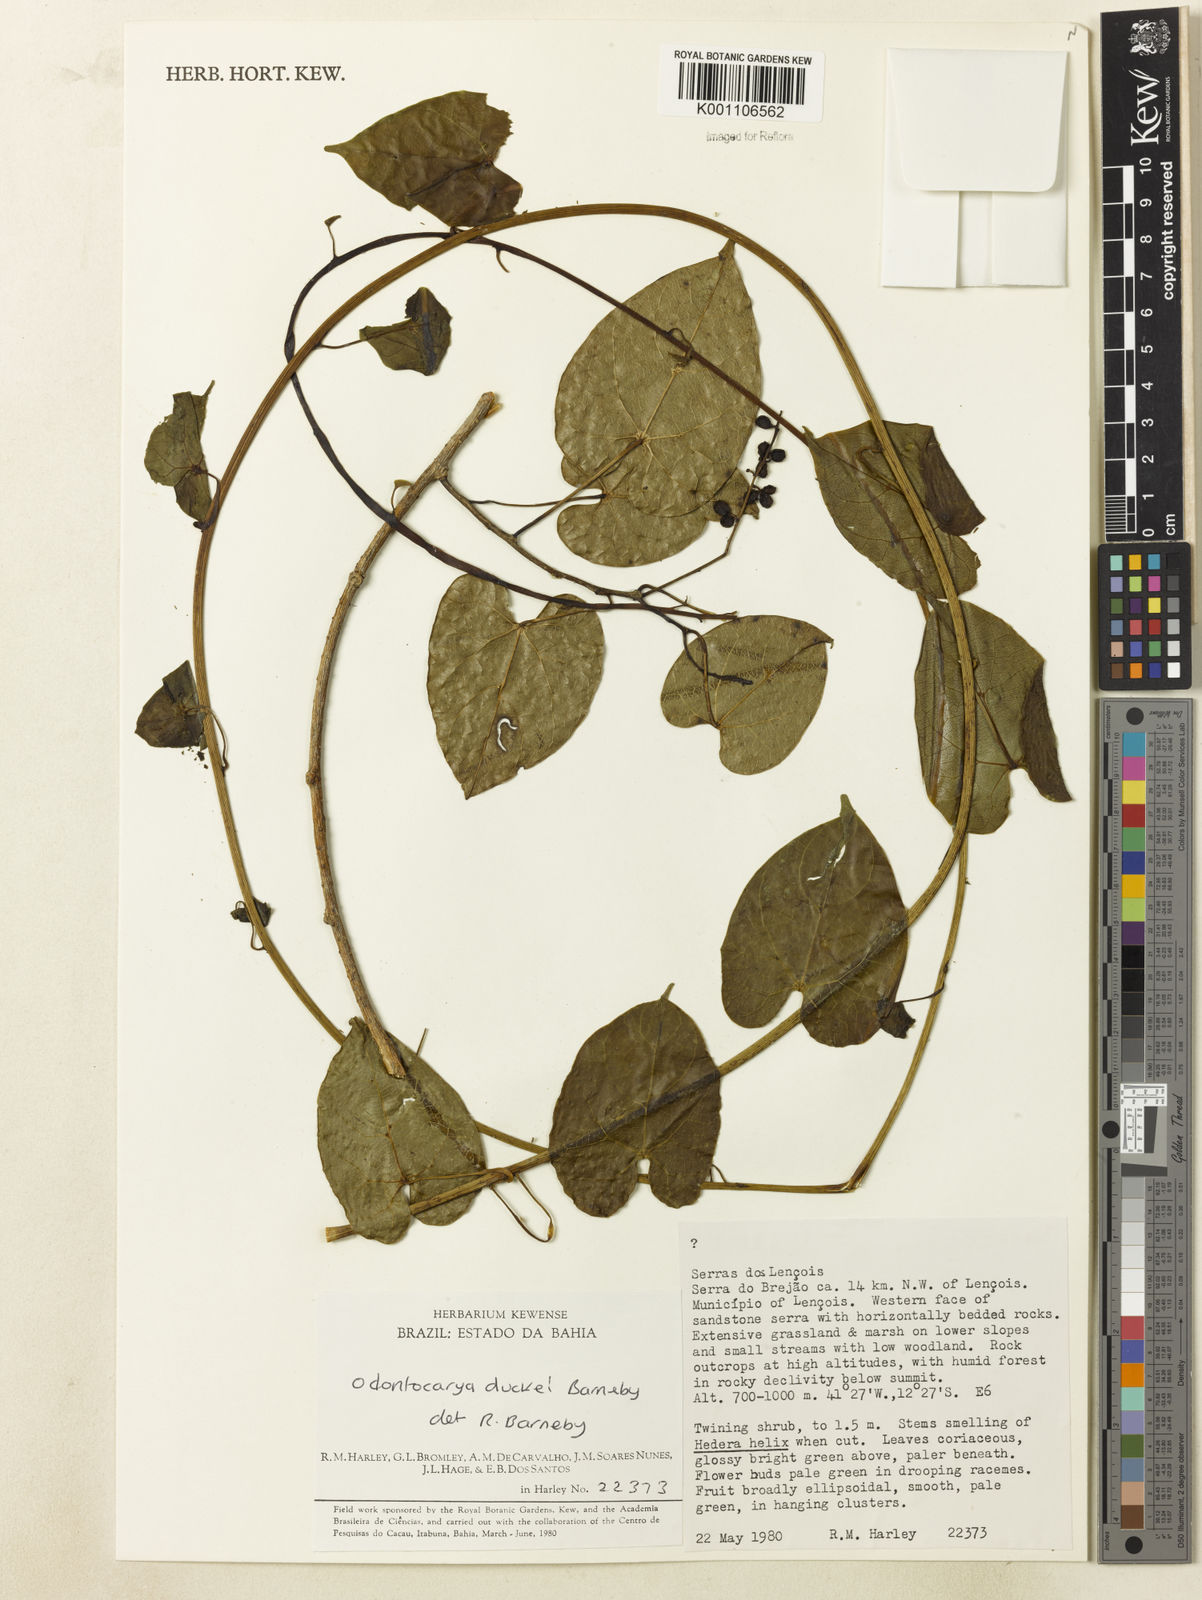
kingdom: Plantae
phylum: Tracheophyta
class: Magnoliopsida
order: Ranunculales
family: Menispermaceae
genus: Odontocarya
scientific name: Odontocarya duckei
